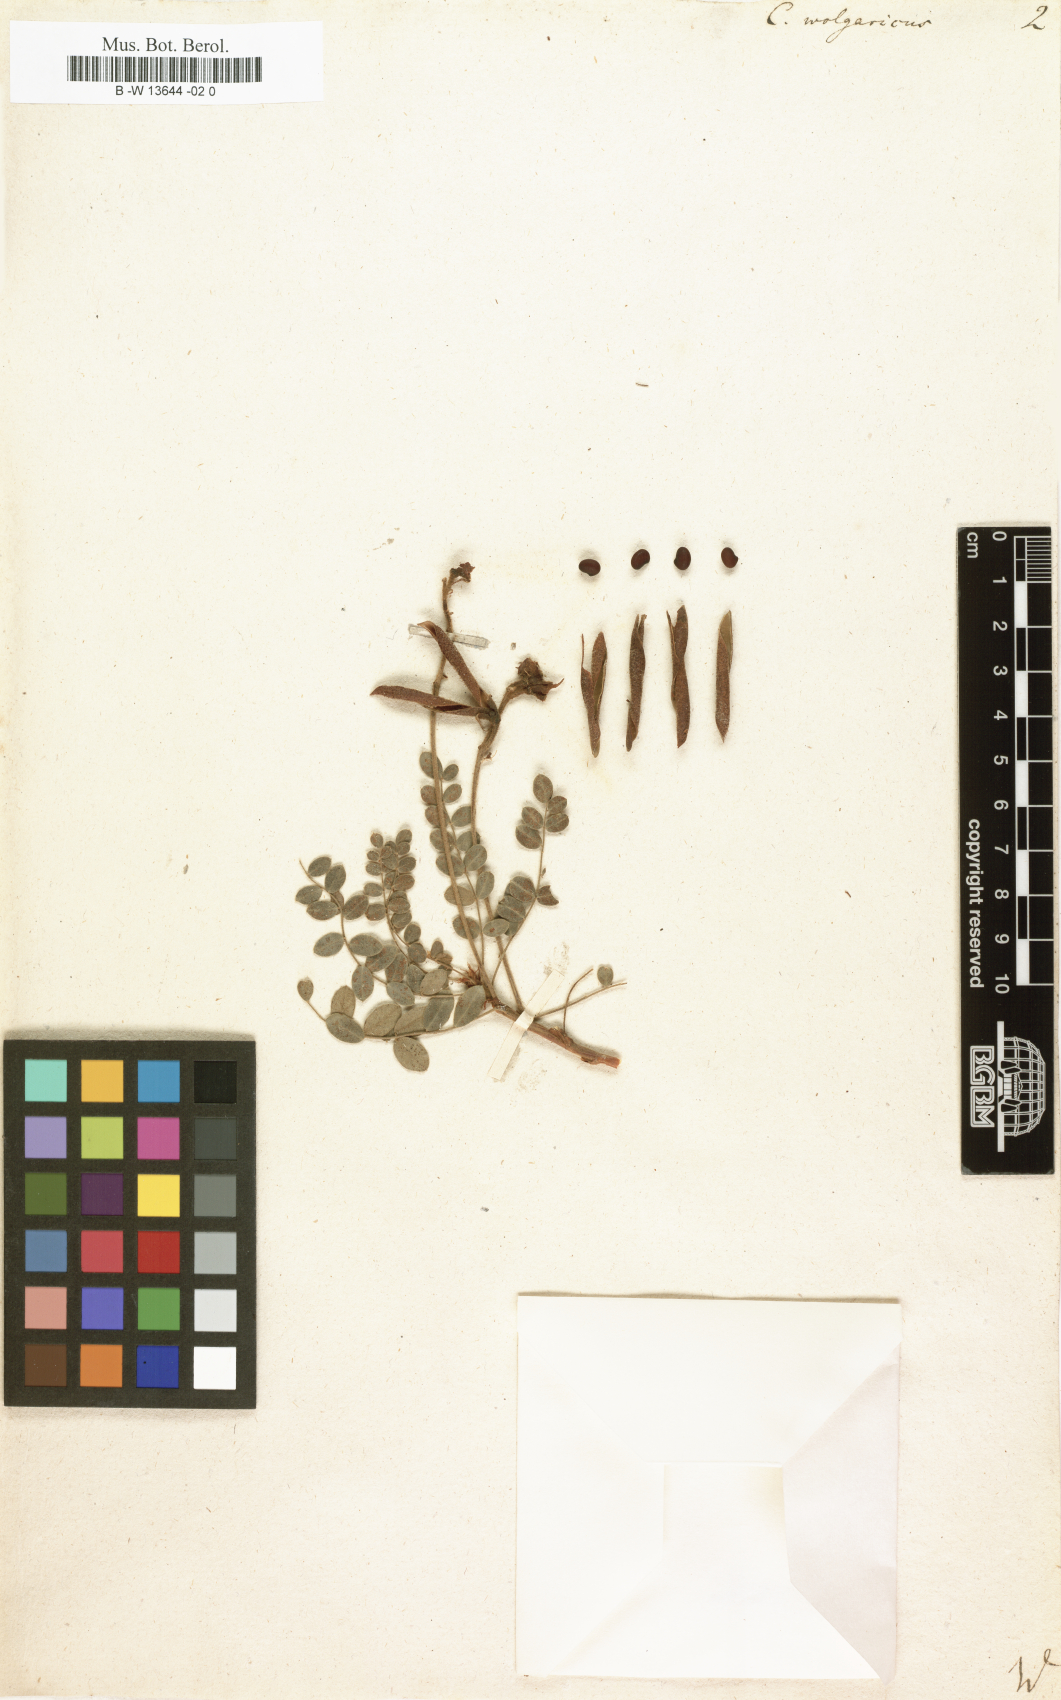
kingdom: Plantae
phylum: Tracheophyta
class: Magnoliopsida
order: Fabales
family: Fabaceae
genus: Calophaca
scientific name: Calophaca wolgarica
